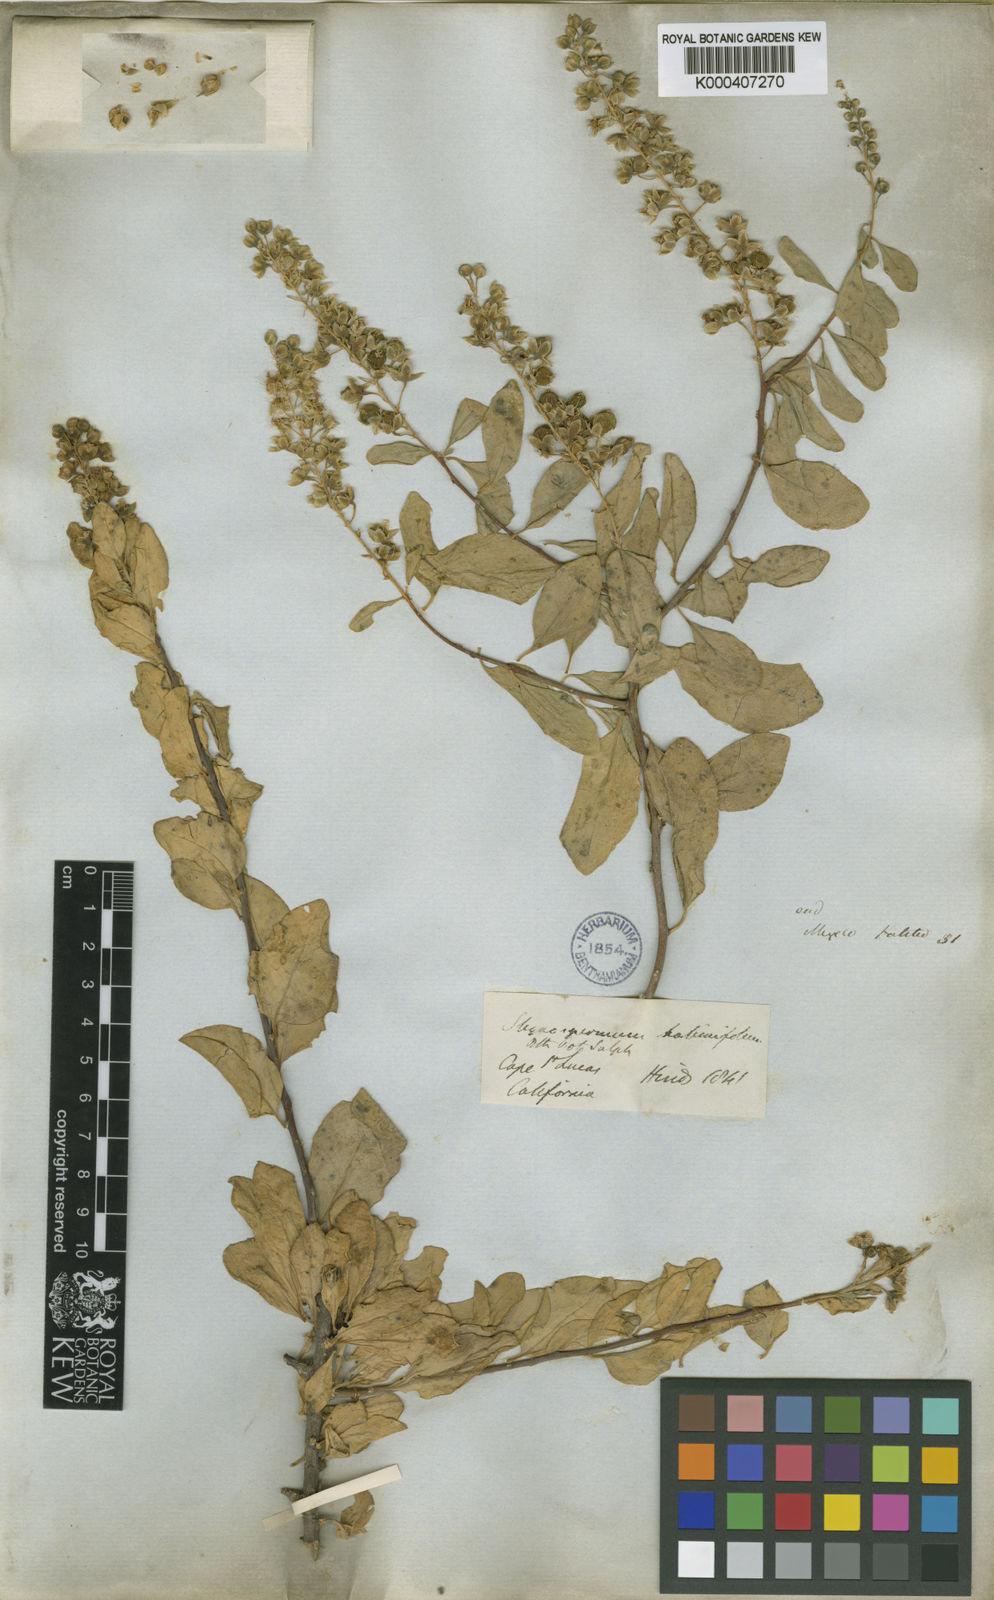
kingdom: Plantae
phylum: Tracheophyta
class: Magnoliopsida
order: Caryophyllales
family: Stegnospermataceae
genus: Stegnosperma
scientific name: Stegnosperma halimifolium
